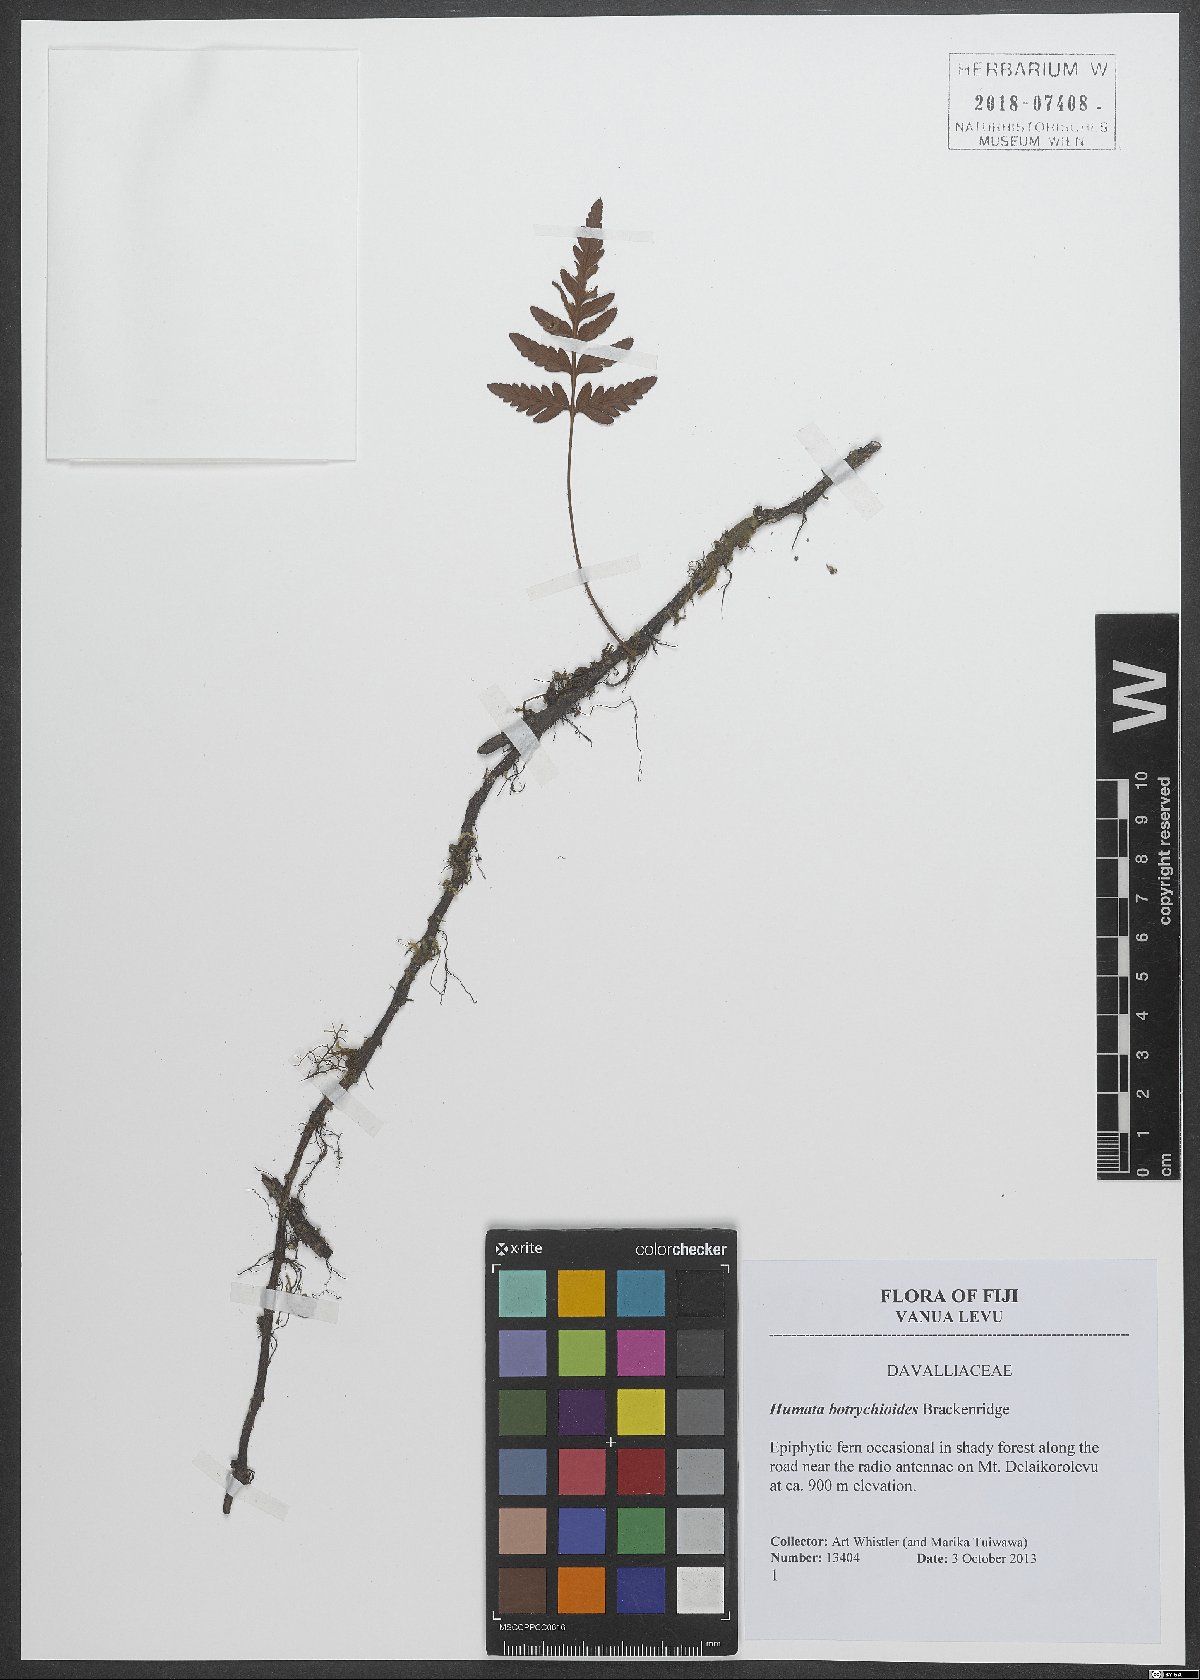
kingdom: Plantae
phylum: Tracheophyta
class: Polypodiopsida
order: Polypodiales
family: Davalliaceae
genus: Davallia
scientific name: Davallia repens
